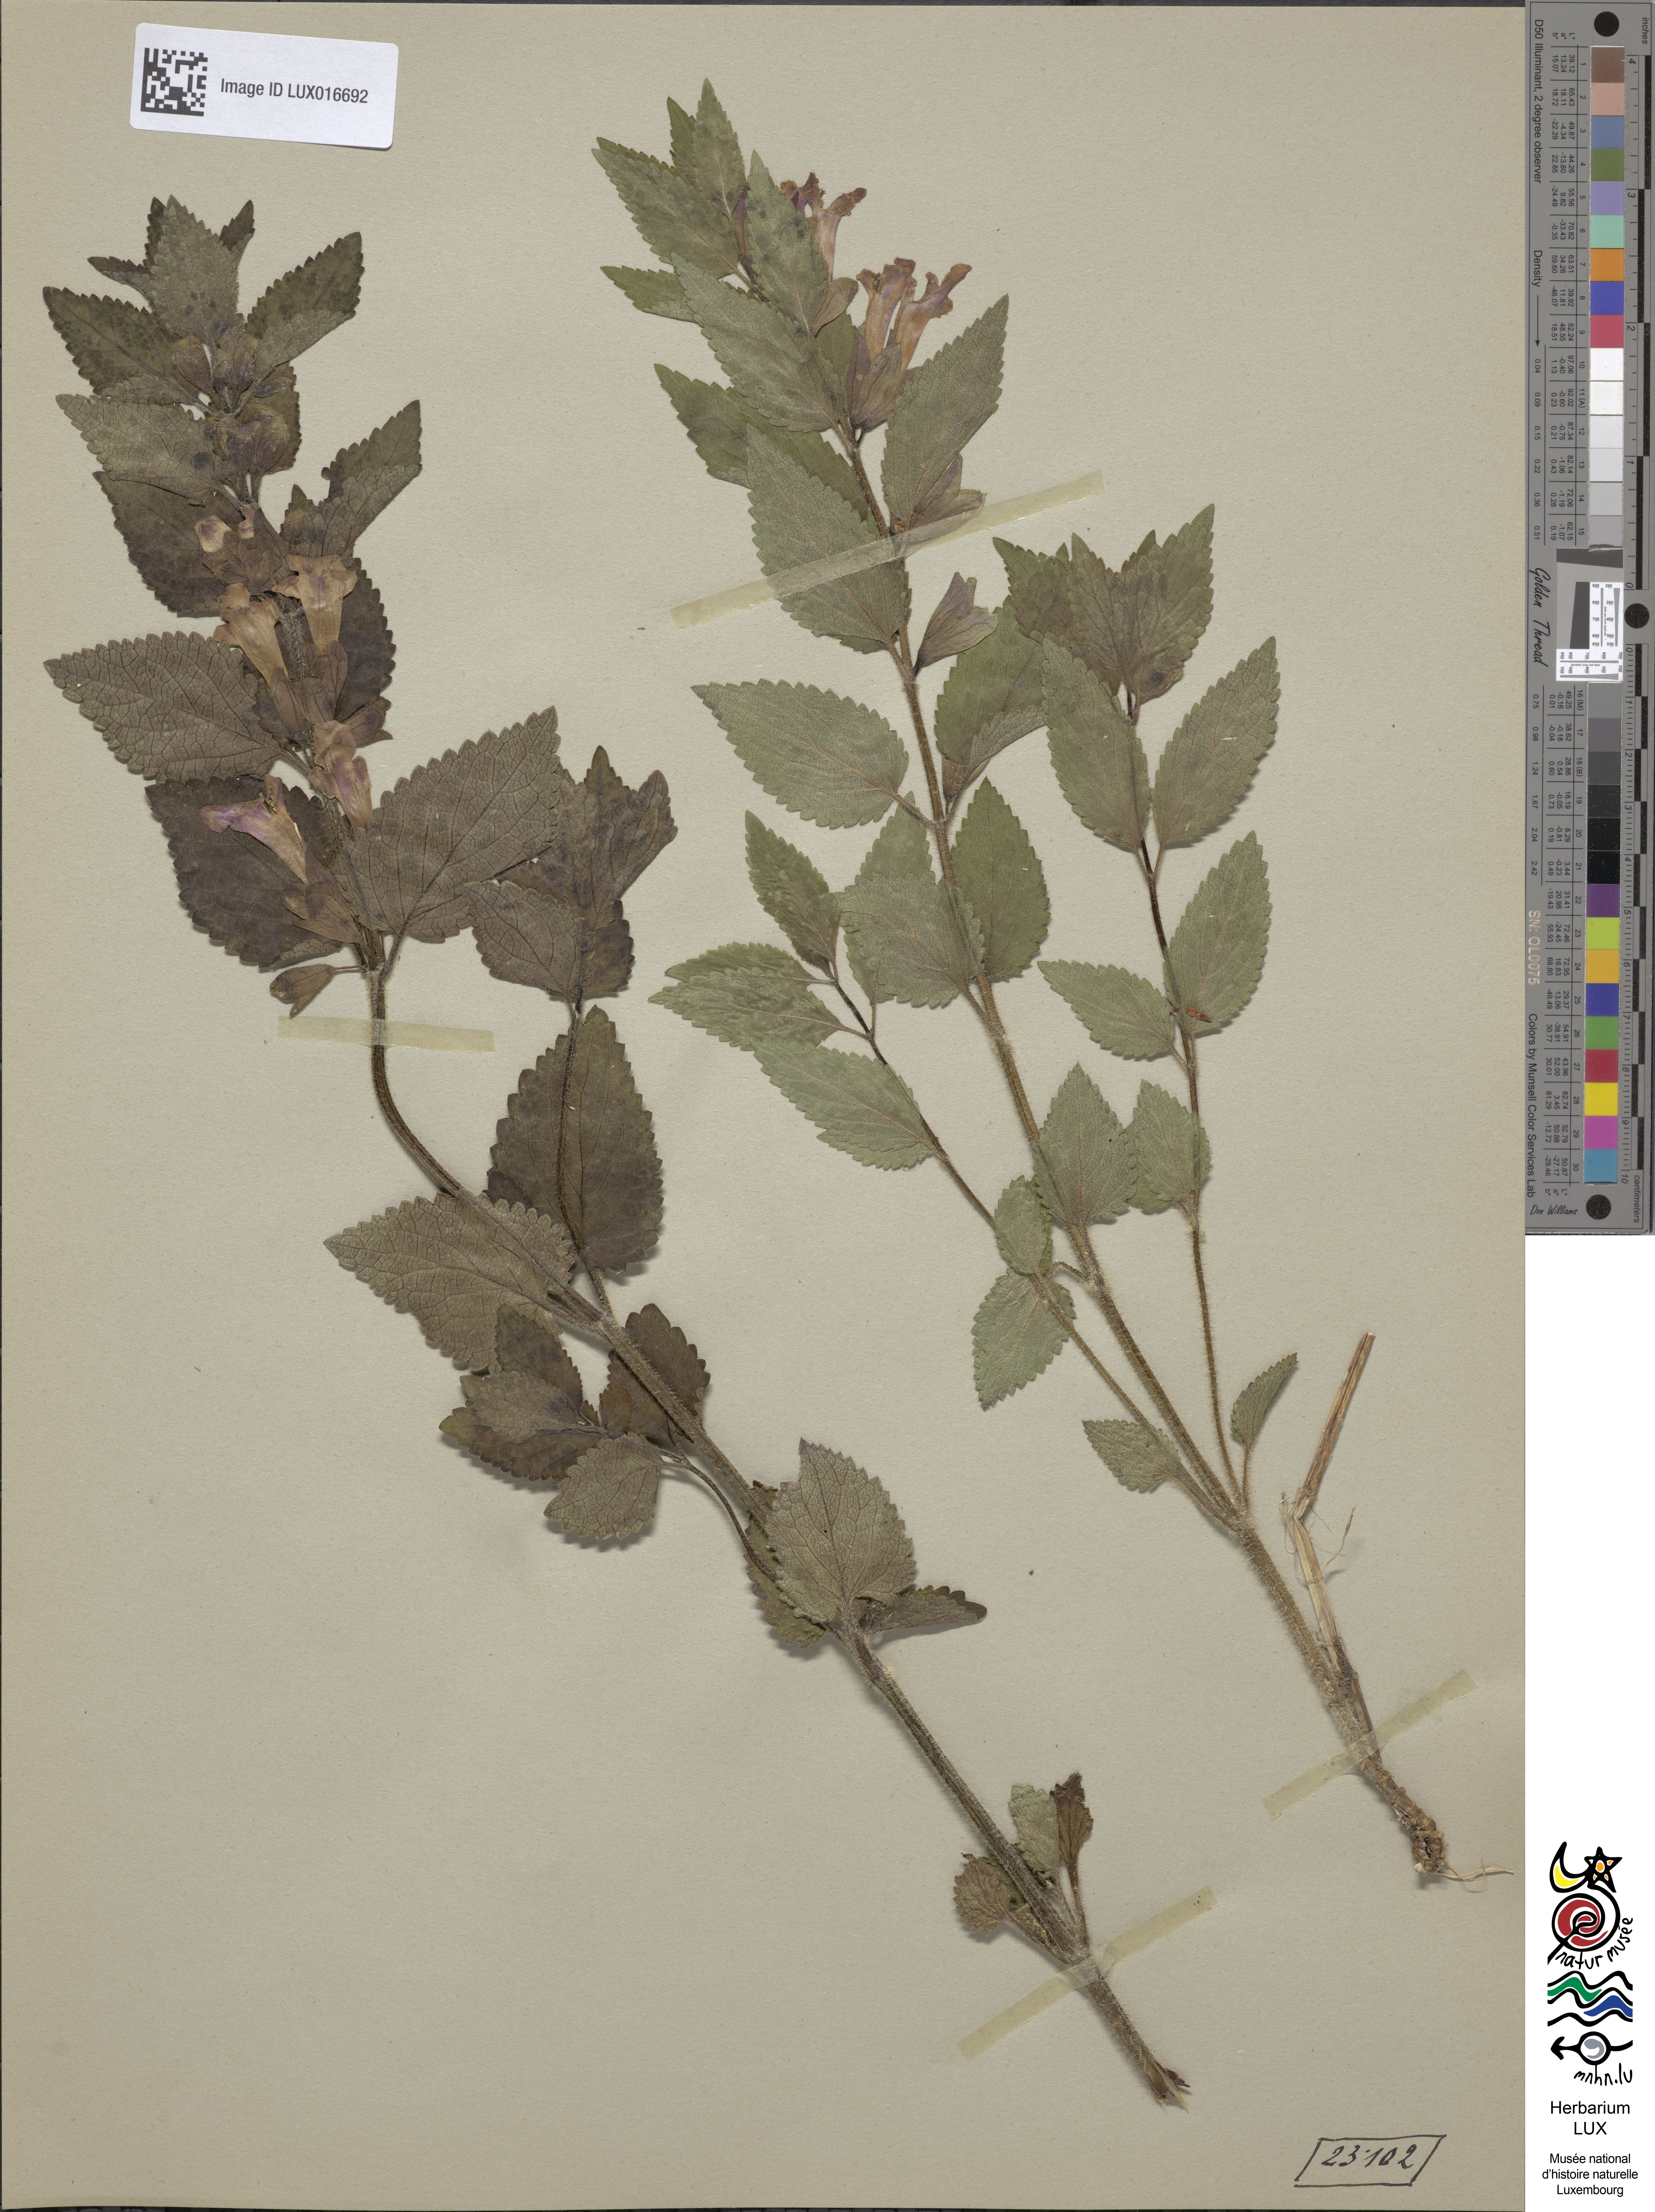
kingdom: Plantae
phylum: Tracheophyta
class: Magnoliopsida
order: Lamiales
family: Lamiaceae
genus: Melittis
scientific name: Melittis melissophyllum
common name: Bastard balm
